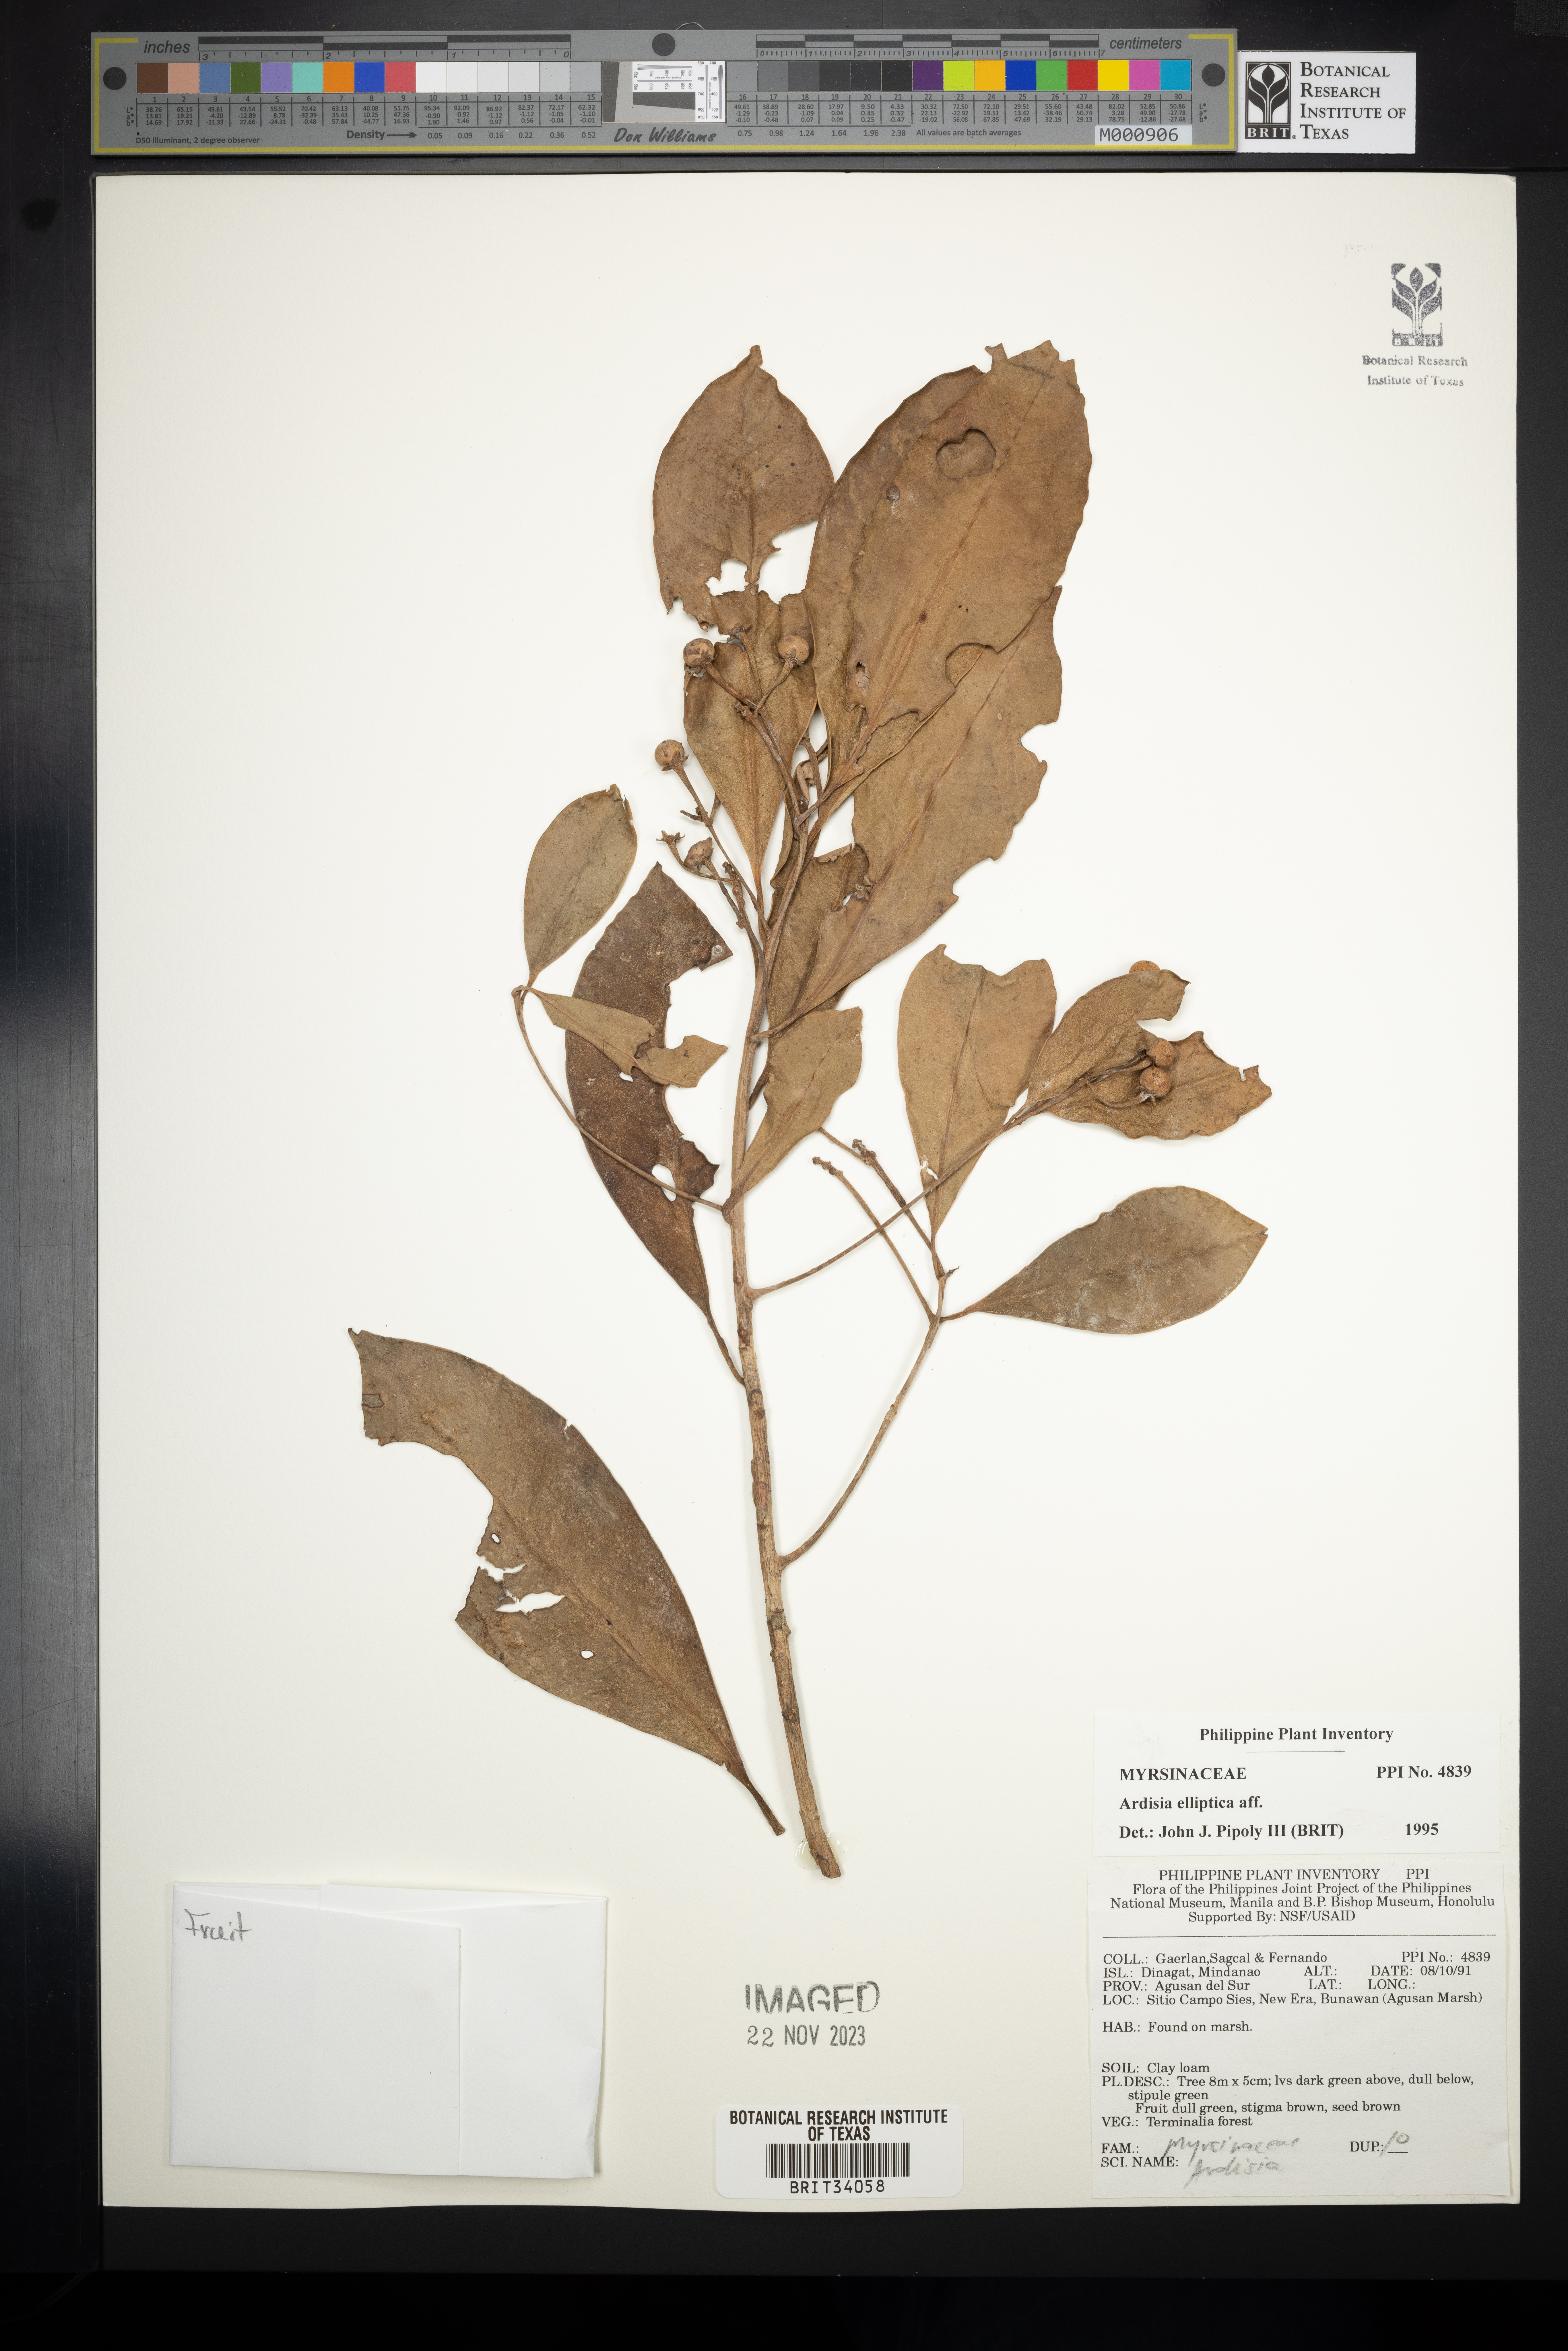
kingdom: Plantae
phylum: Tracheophyta
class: Magnoliopsida
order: Ericales
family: Primulaceae
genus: Ardisia
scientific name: Ardisia elliptica
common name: Shoebutton
